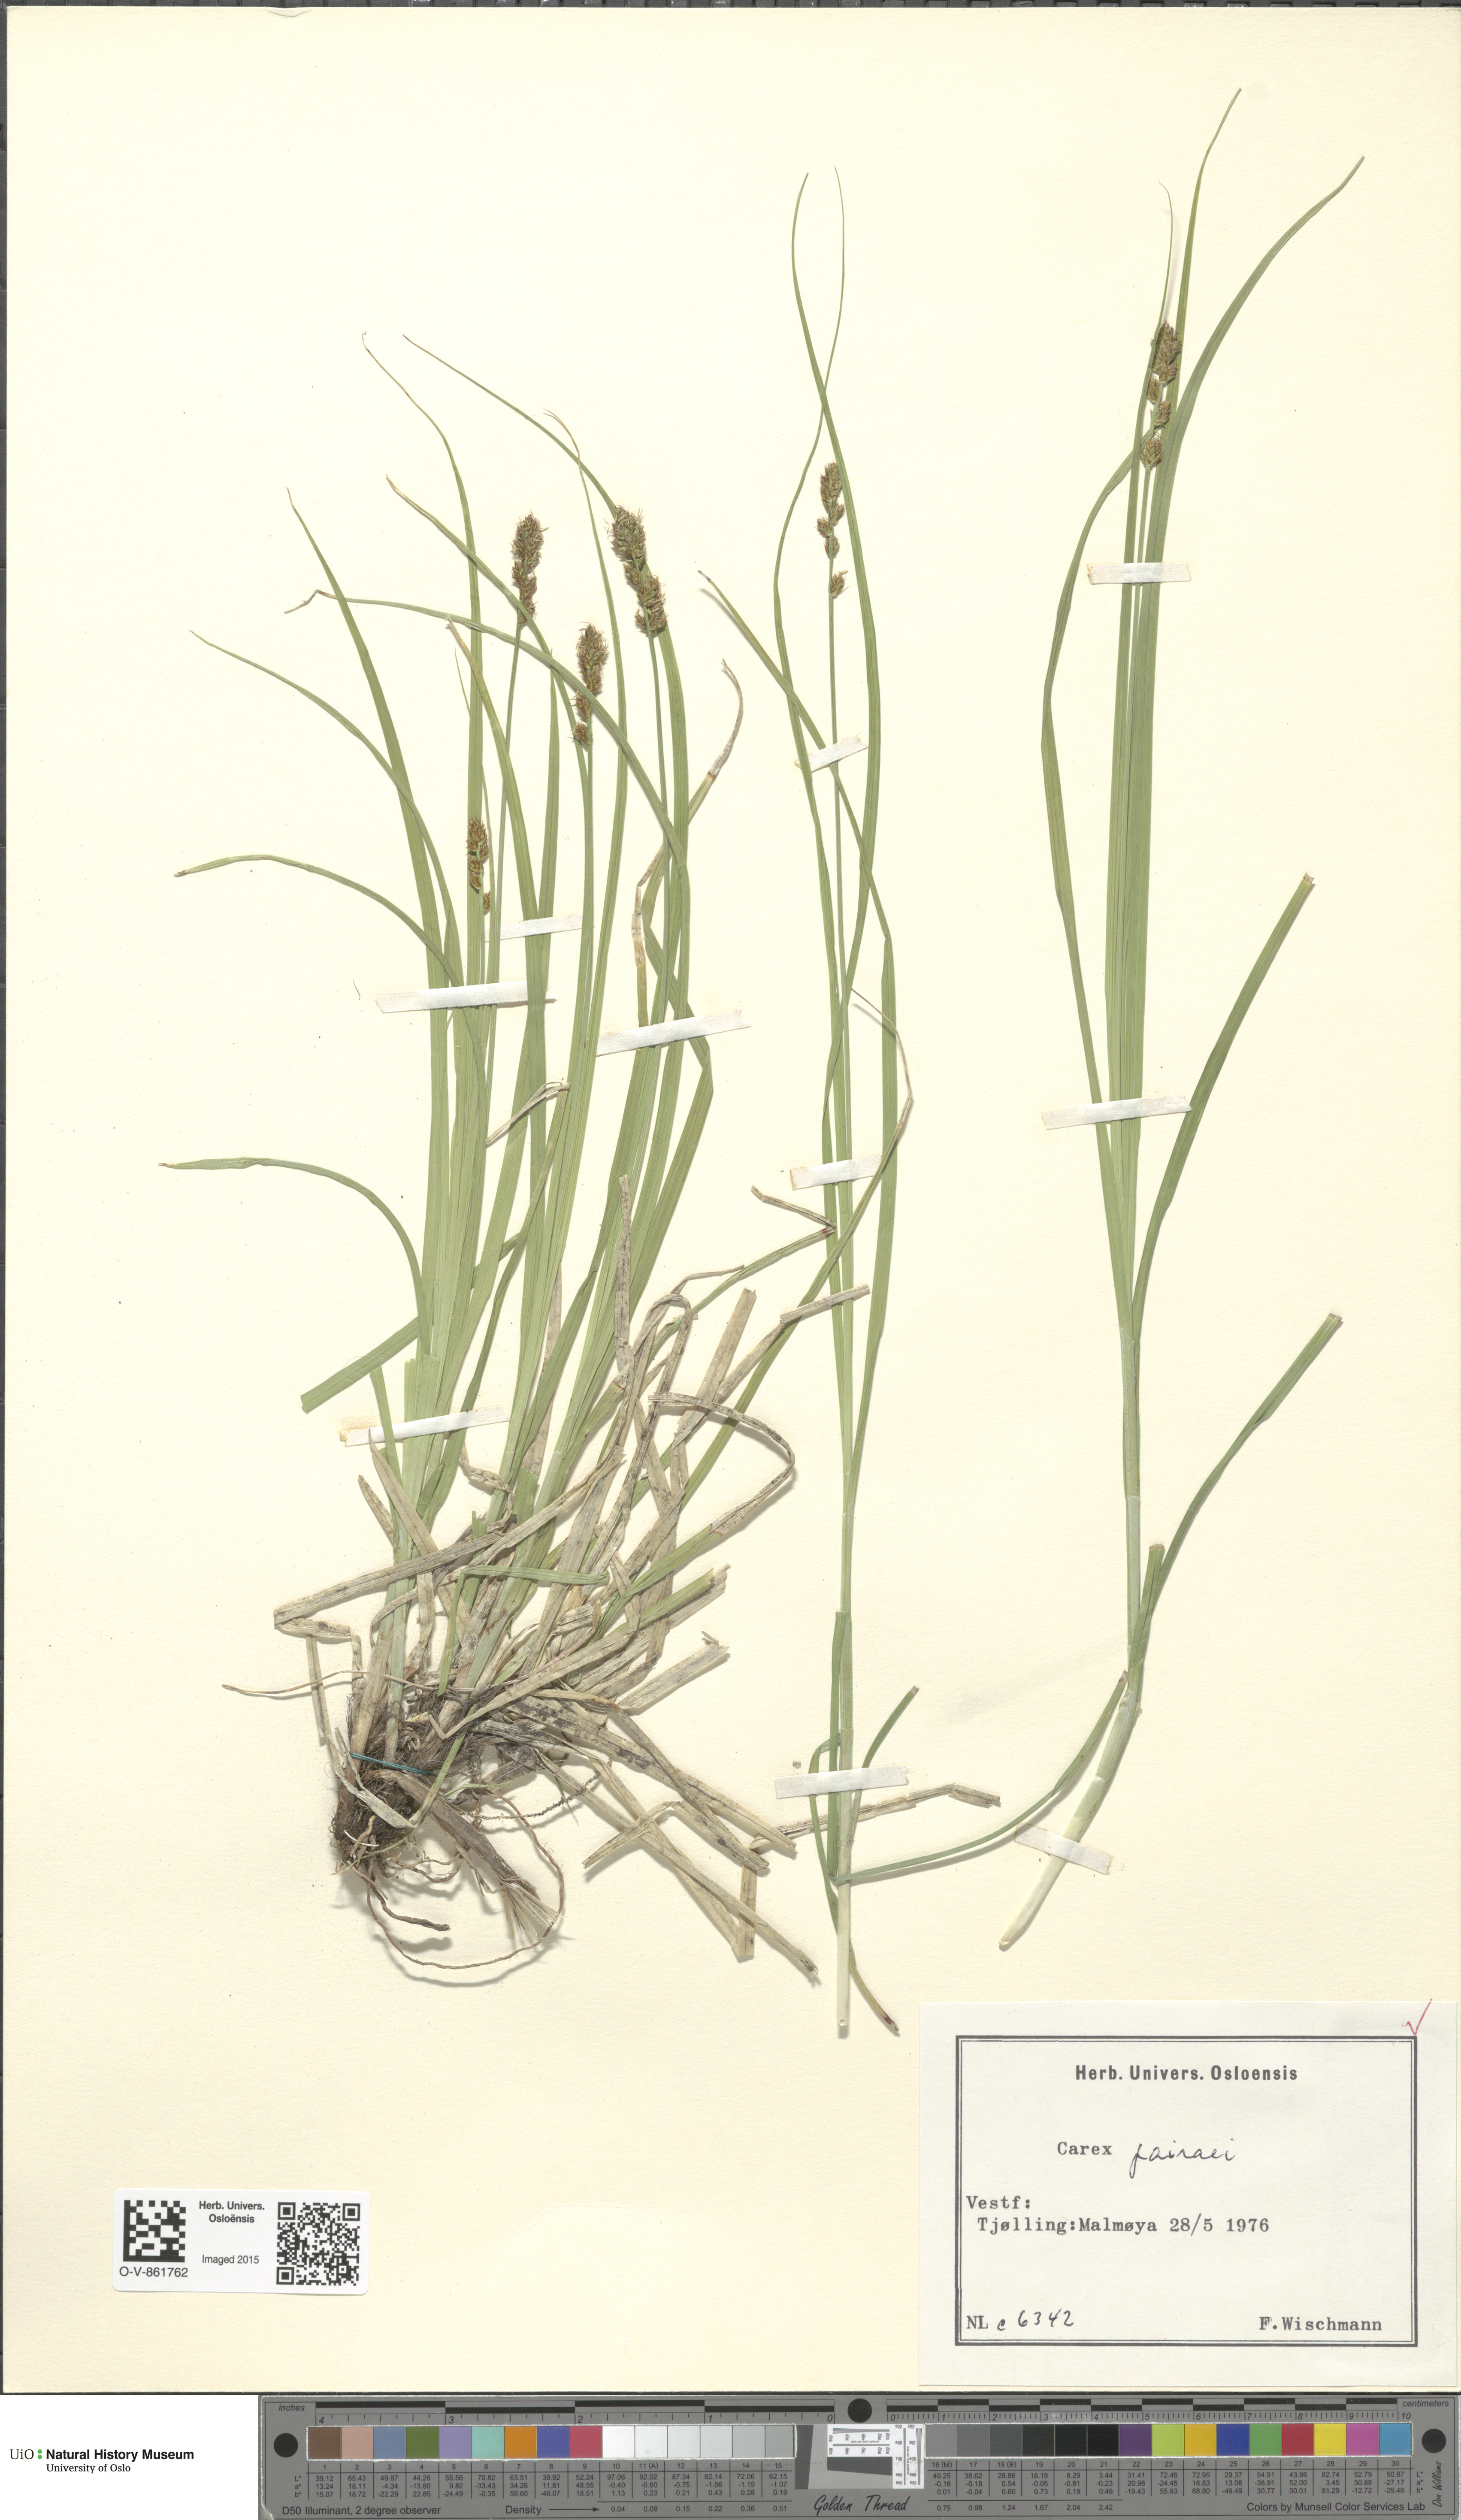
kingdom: Plantae
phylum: Tracheophyta
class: Liliopsida
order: Poales
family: Cyperaceae
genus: Carex
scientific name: Carex pairae
